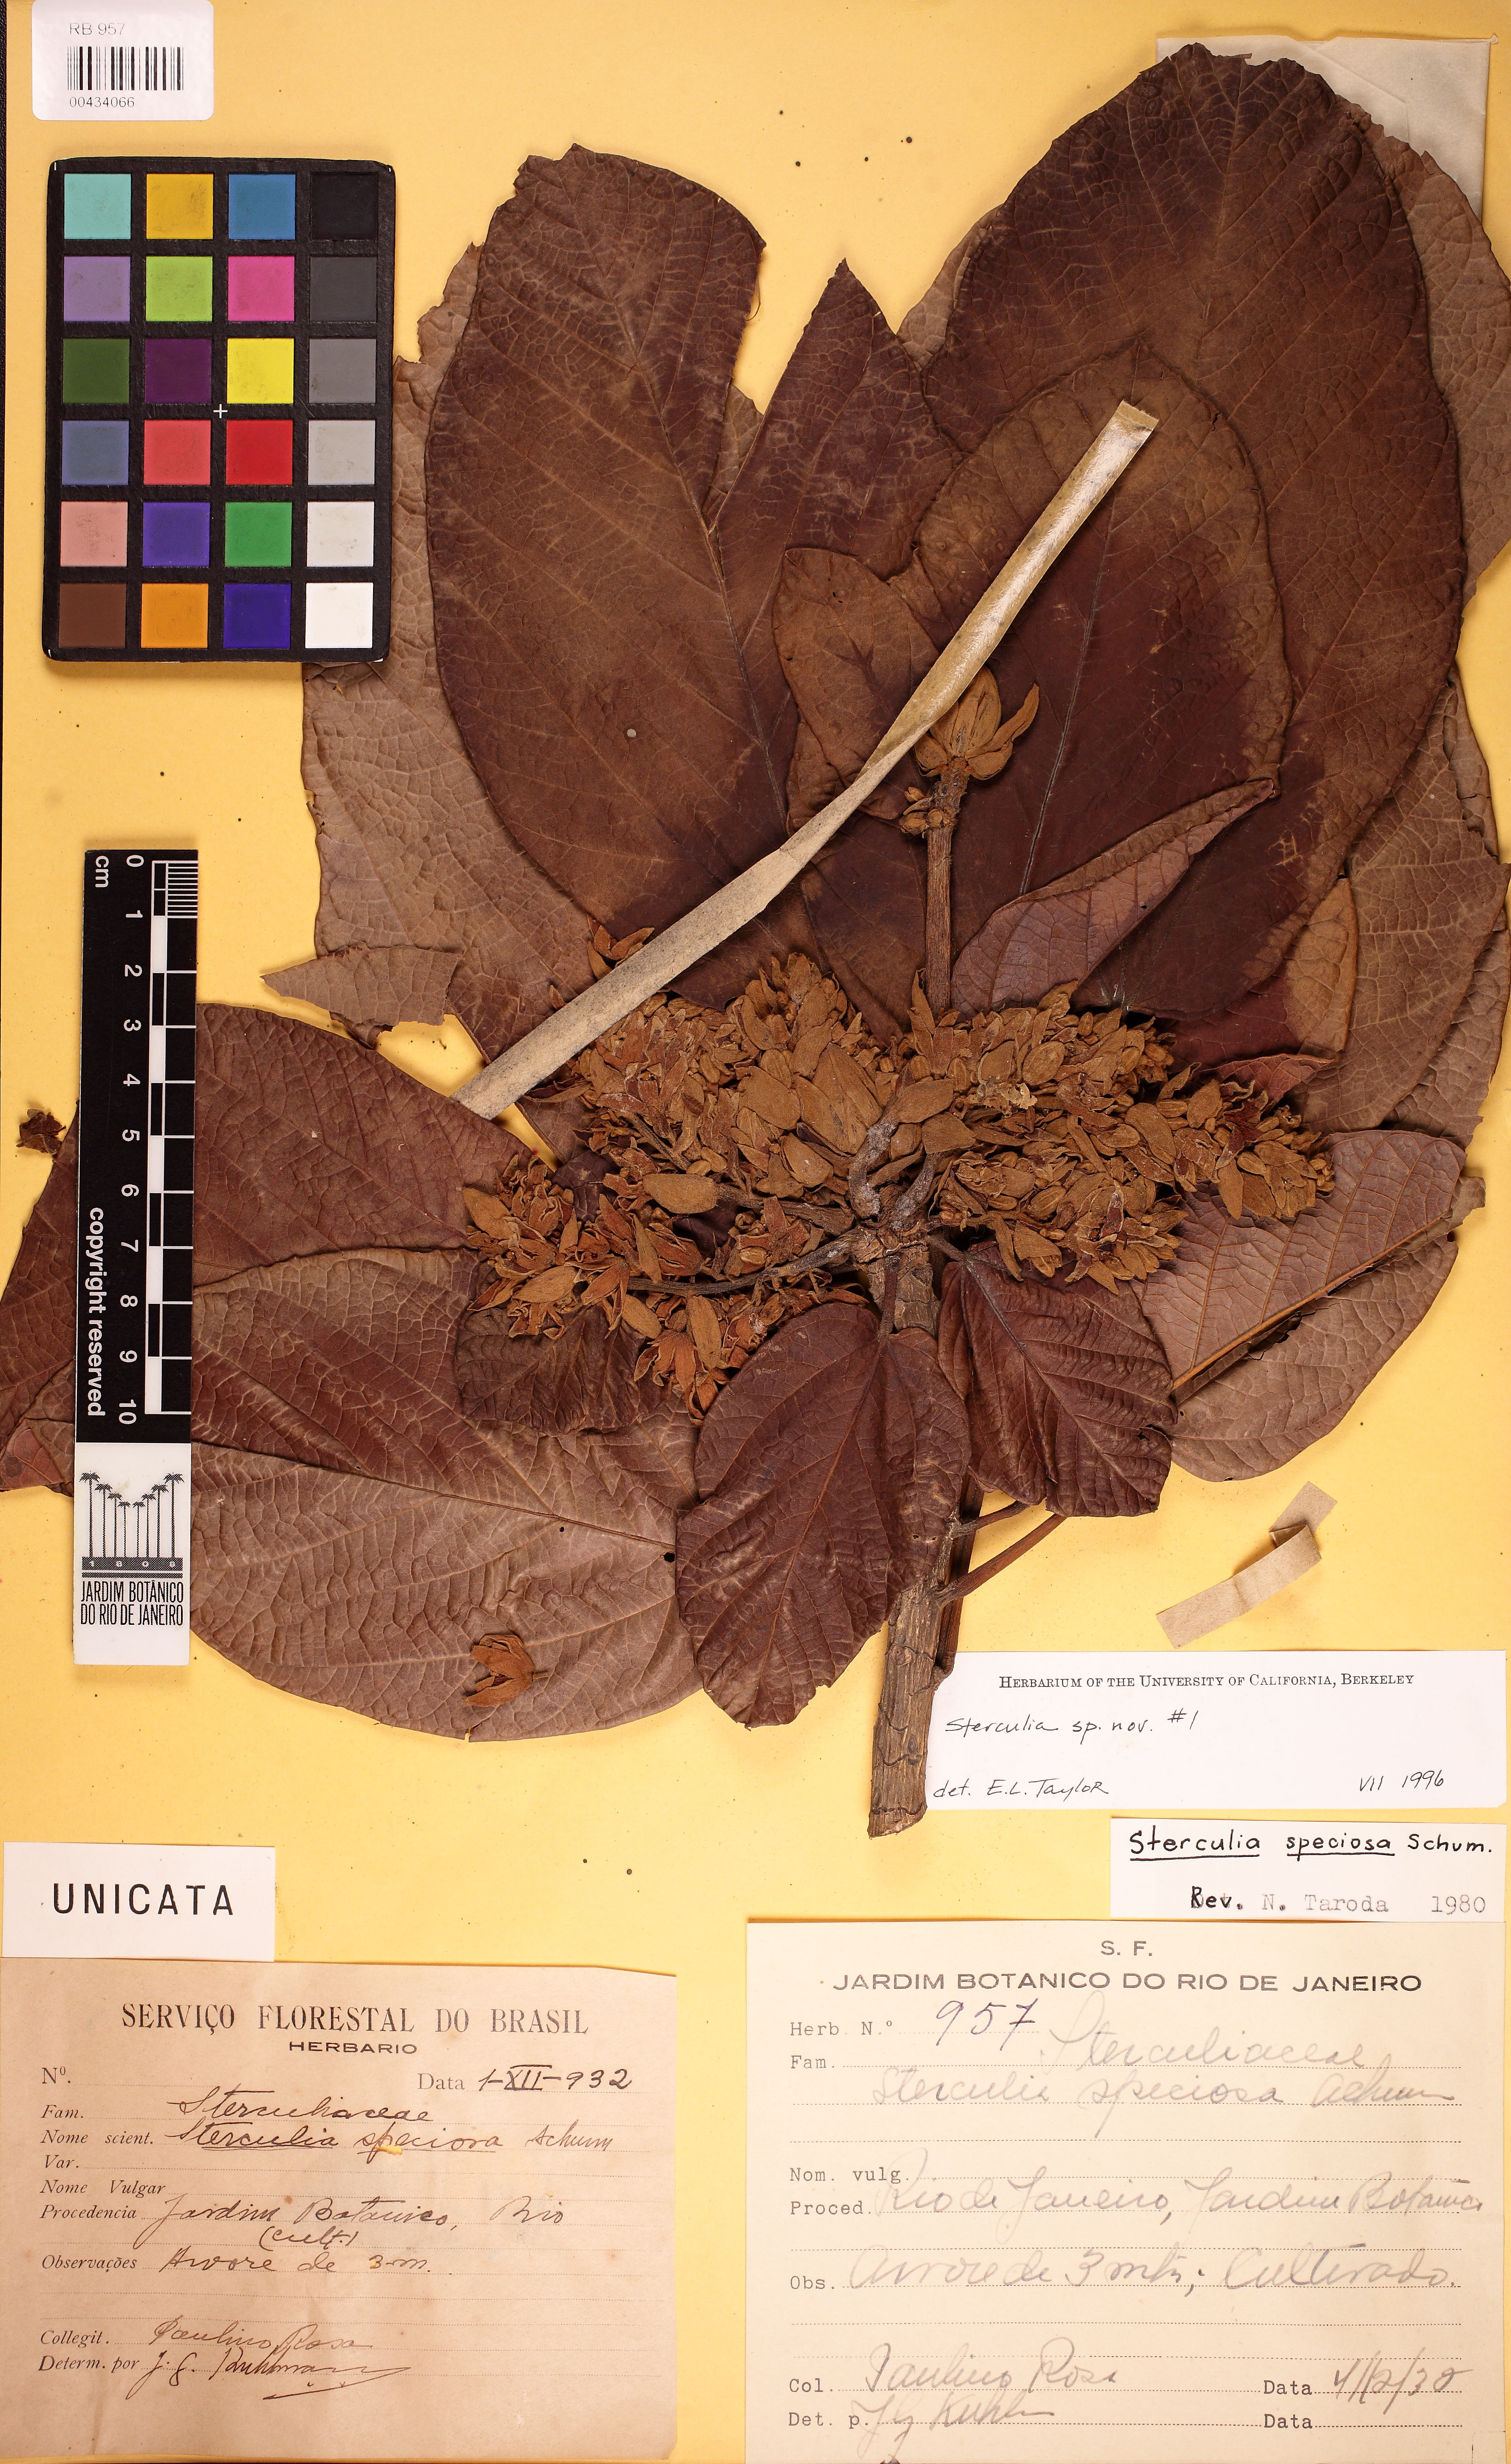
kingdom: Plantae
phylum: Tracheophyta
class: Magnoliopsida
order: Malvales
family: Malvaceae
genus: Sterculia
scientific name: Sterculia
